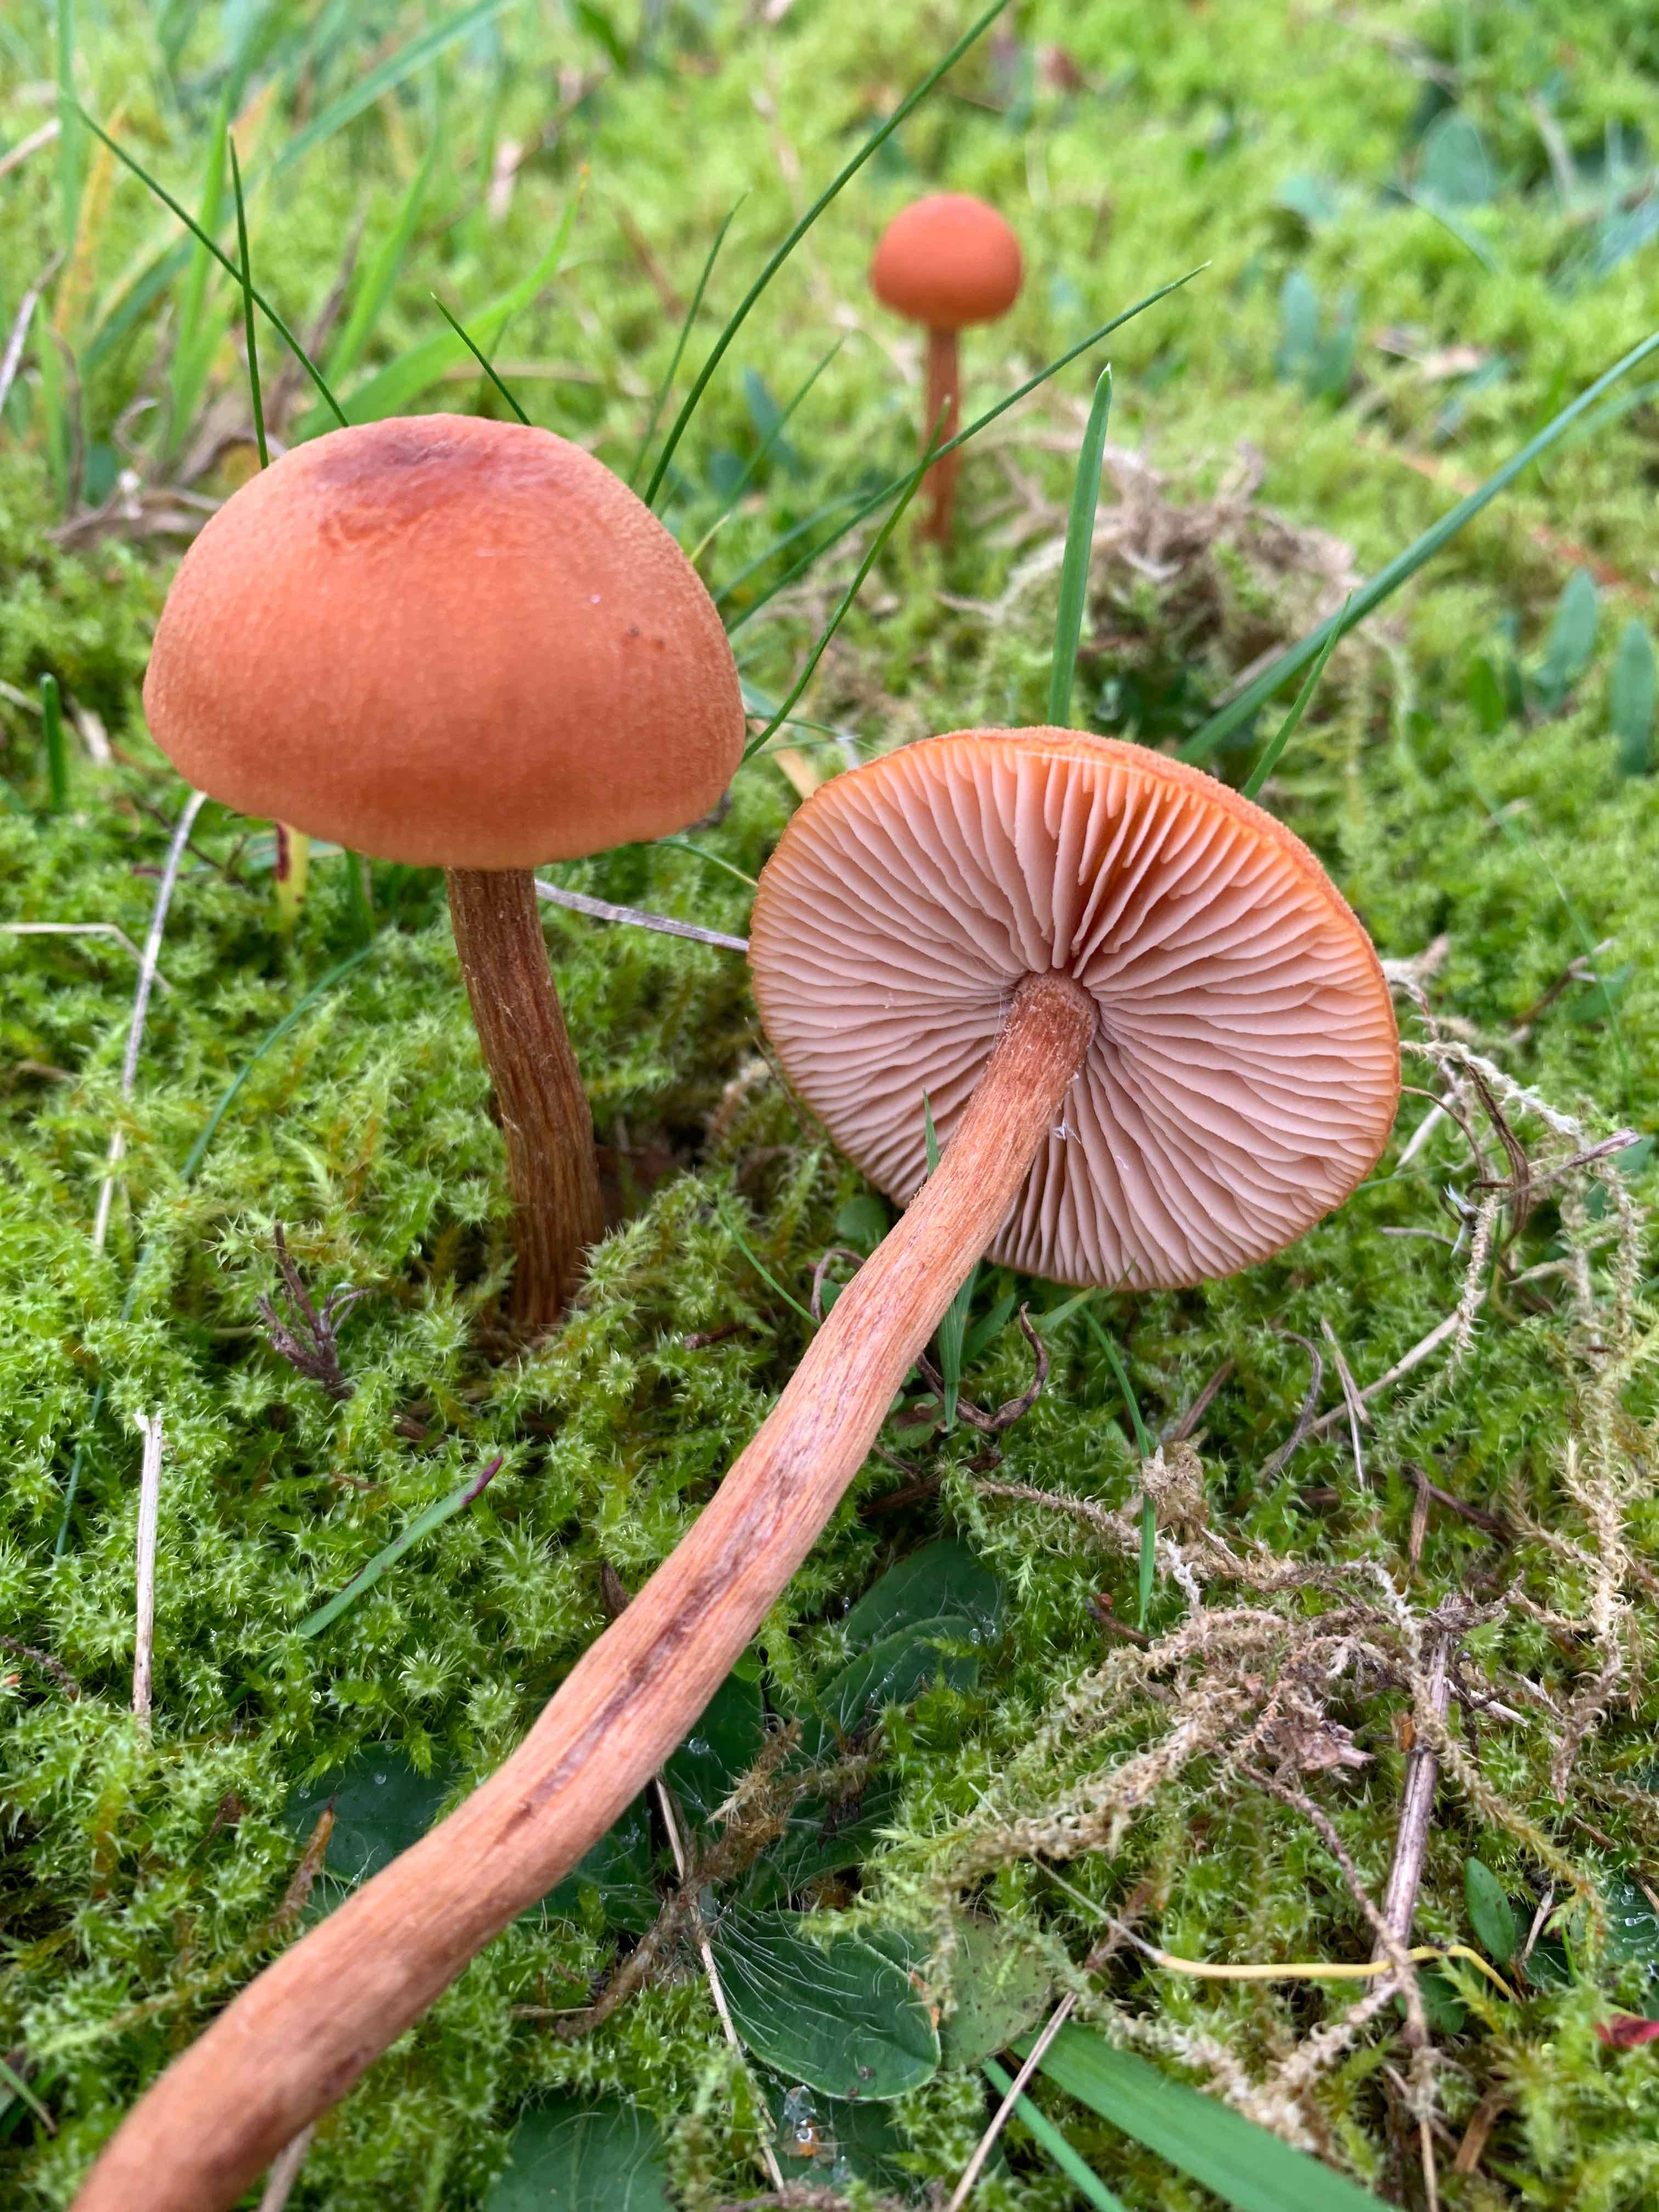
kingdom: Fungi
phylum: Basidiomycota
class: Agaricomycetes
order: Agaricales
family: Hydnangiaceae
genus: Laccaria
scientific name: Laccaria proxima
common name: stor ametysthat
